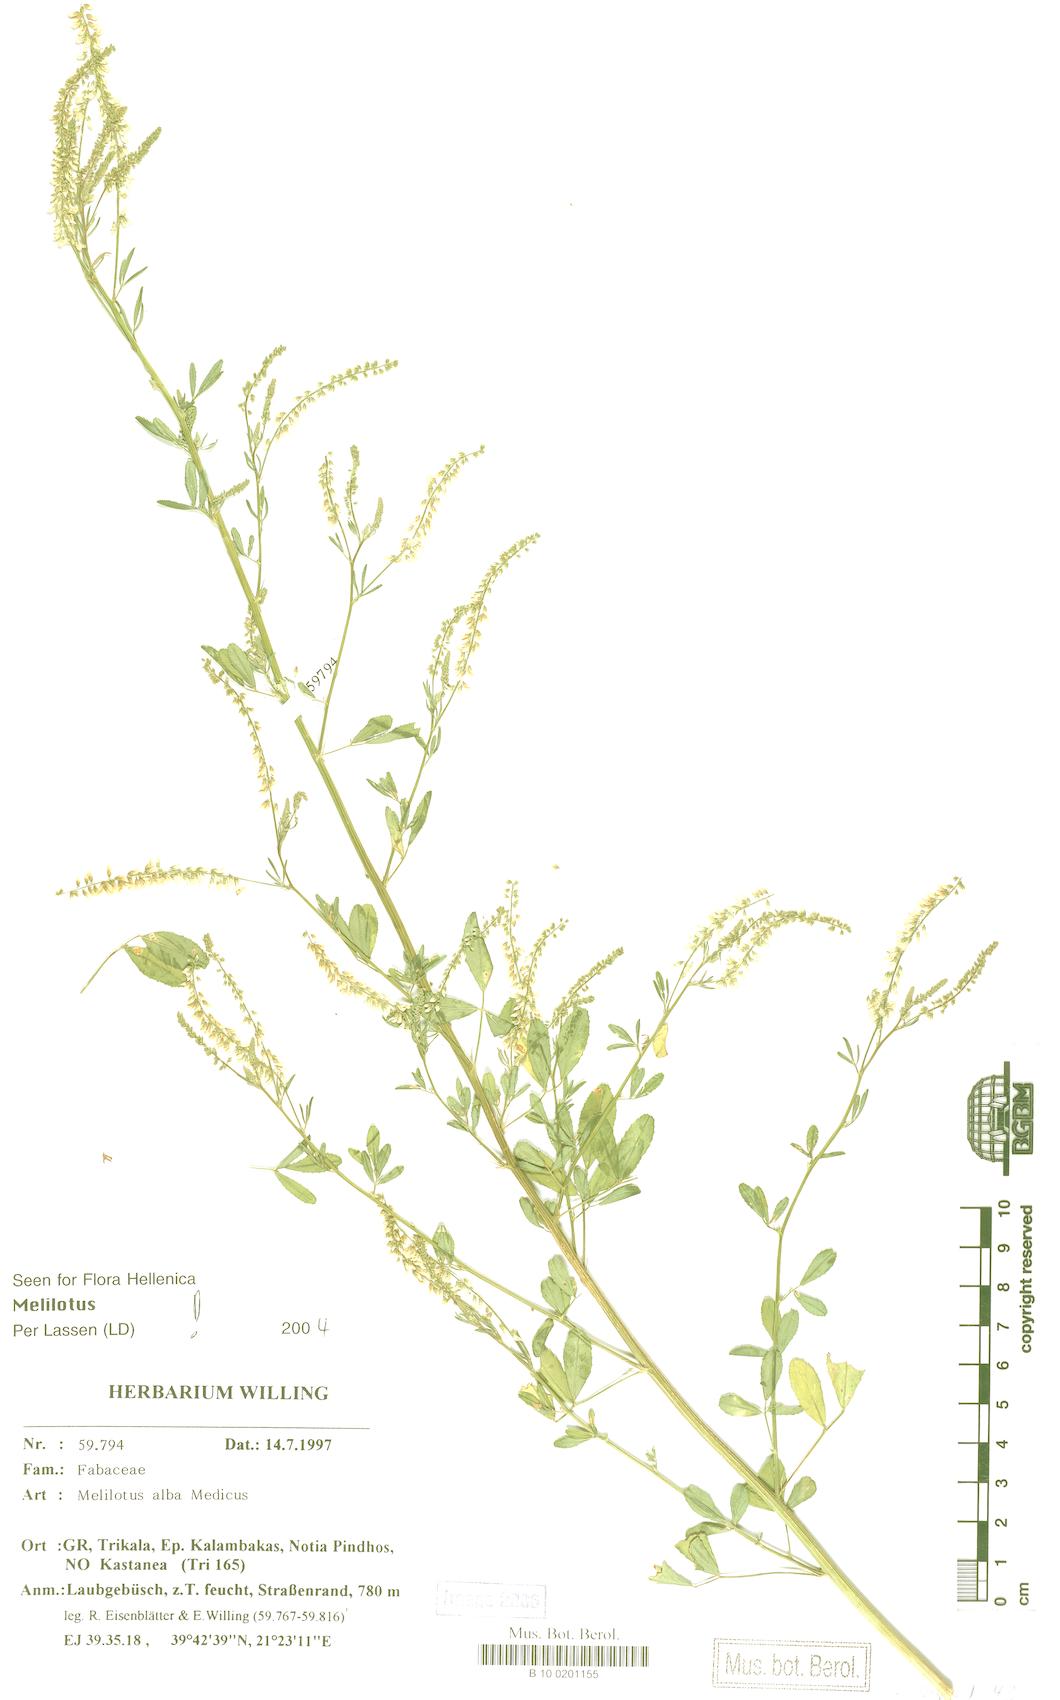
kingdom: Plantae
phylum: Tracheophyta
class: Magnoliopsida
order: Fabales
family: Fabaceae
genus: Melilotus
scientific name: Melilotus albus
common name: White melilot
